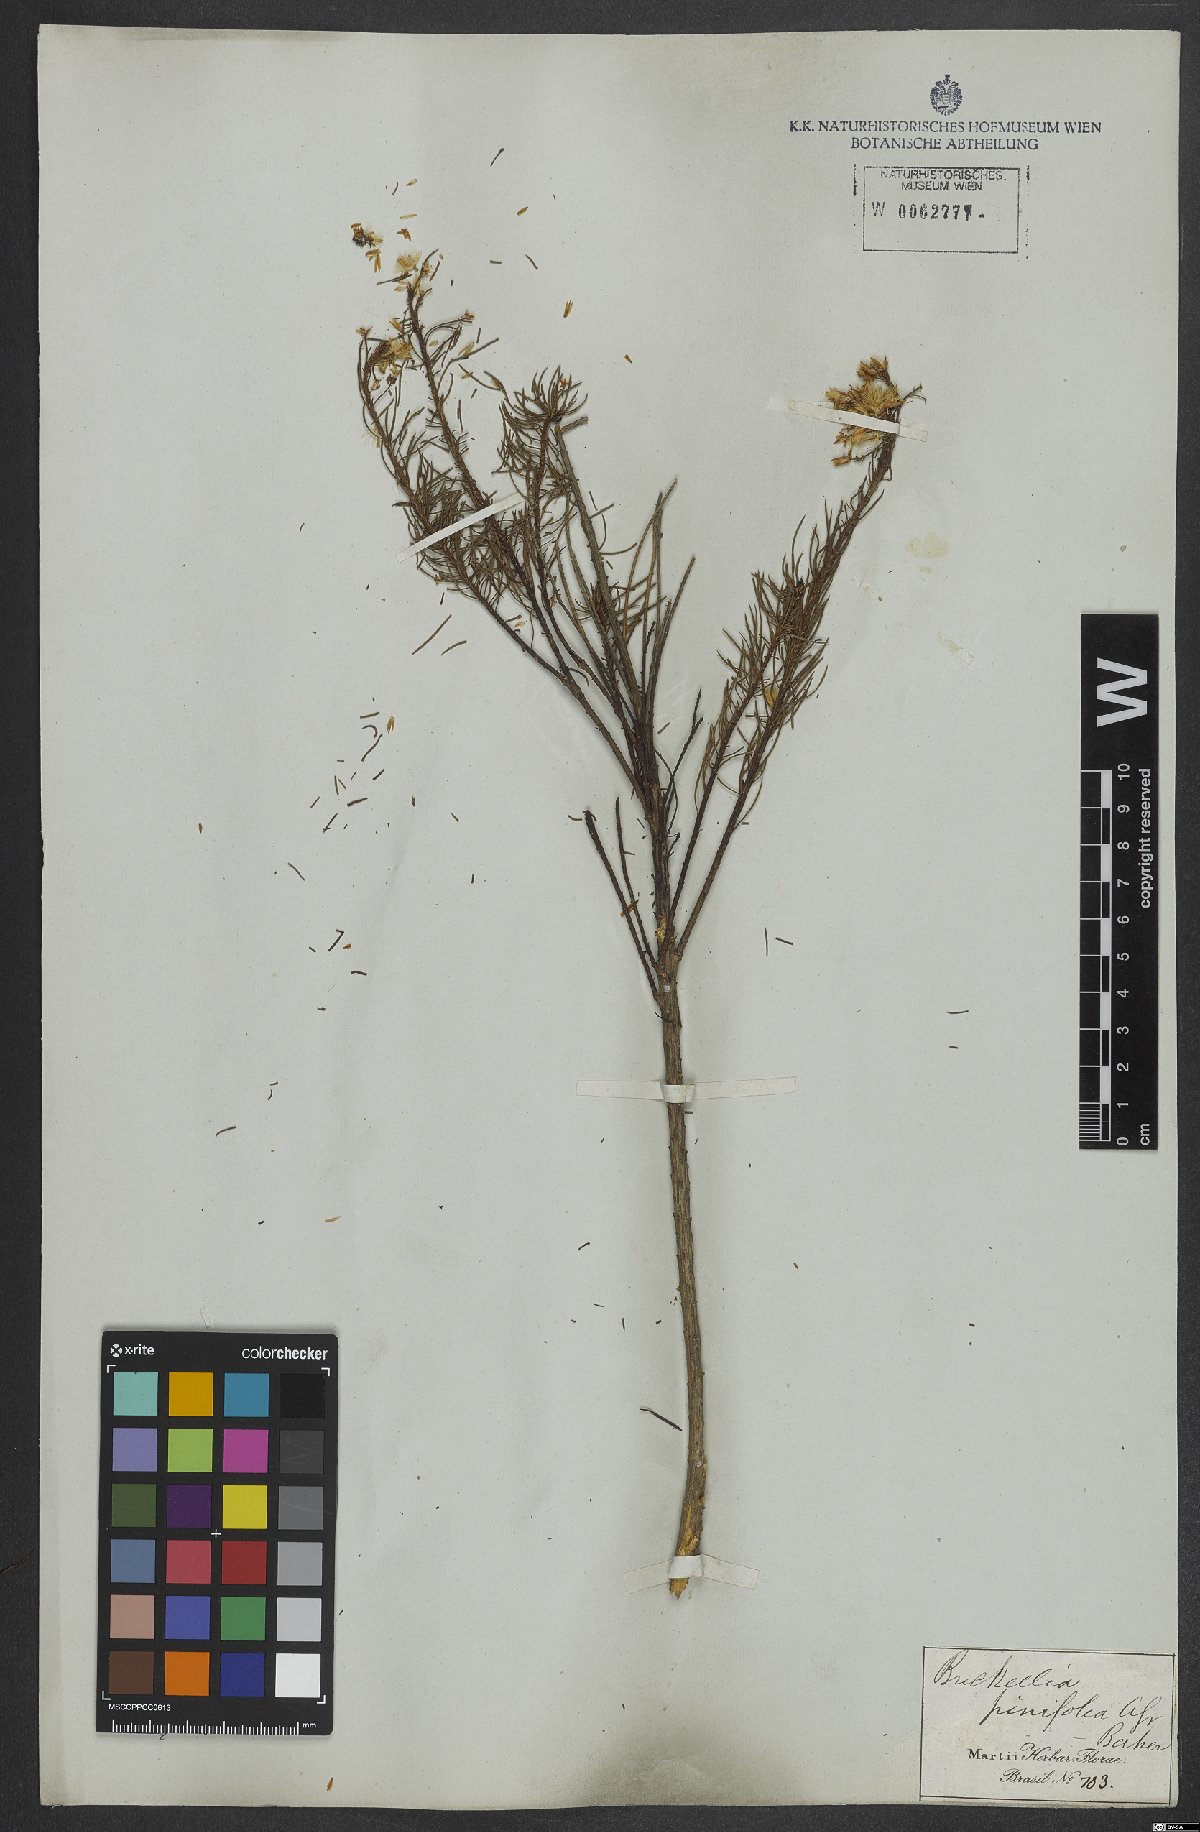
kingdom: Plantae
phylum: Tracheophyta
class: Magnoliopsida
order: Asterales
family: Asteraceae
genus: Pseudobrickellia
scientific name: Pseudobrickellia brasiliensis
